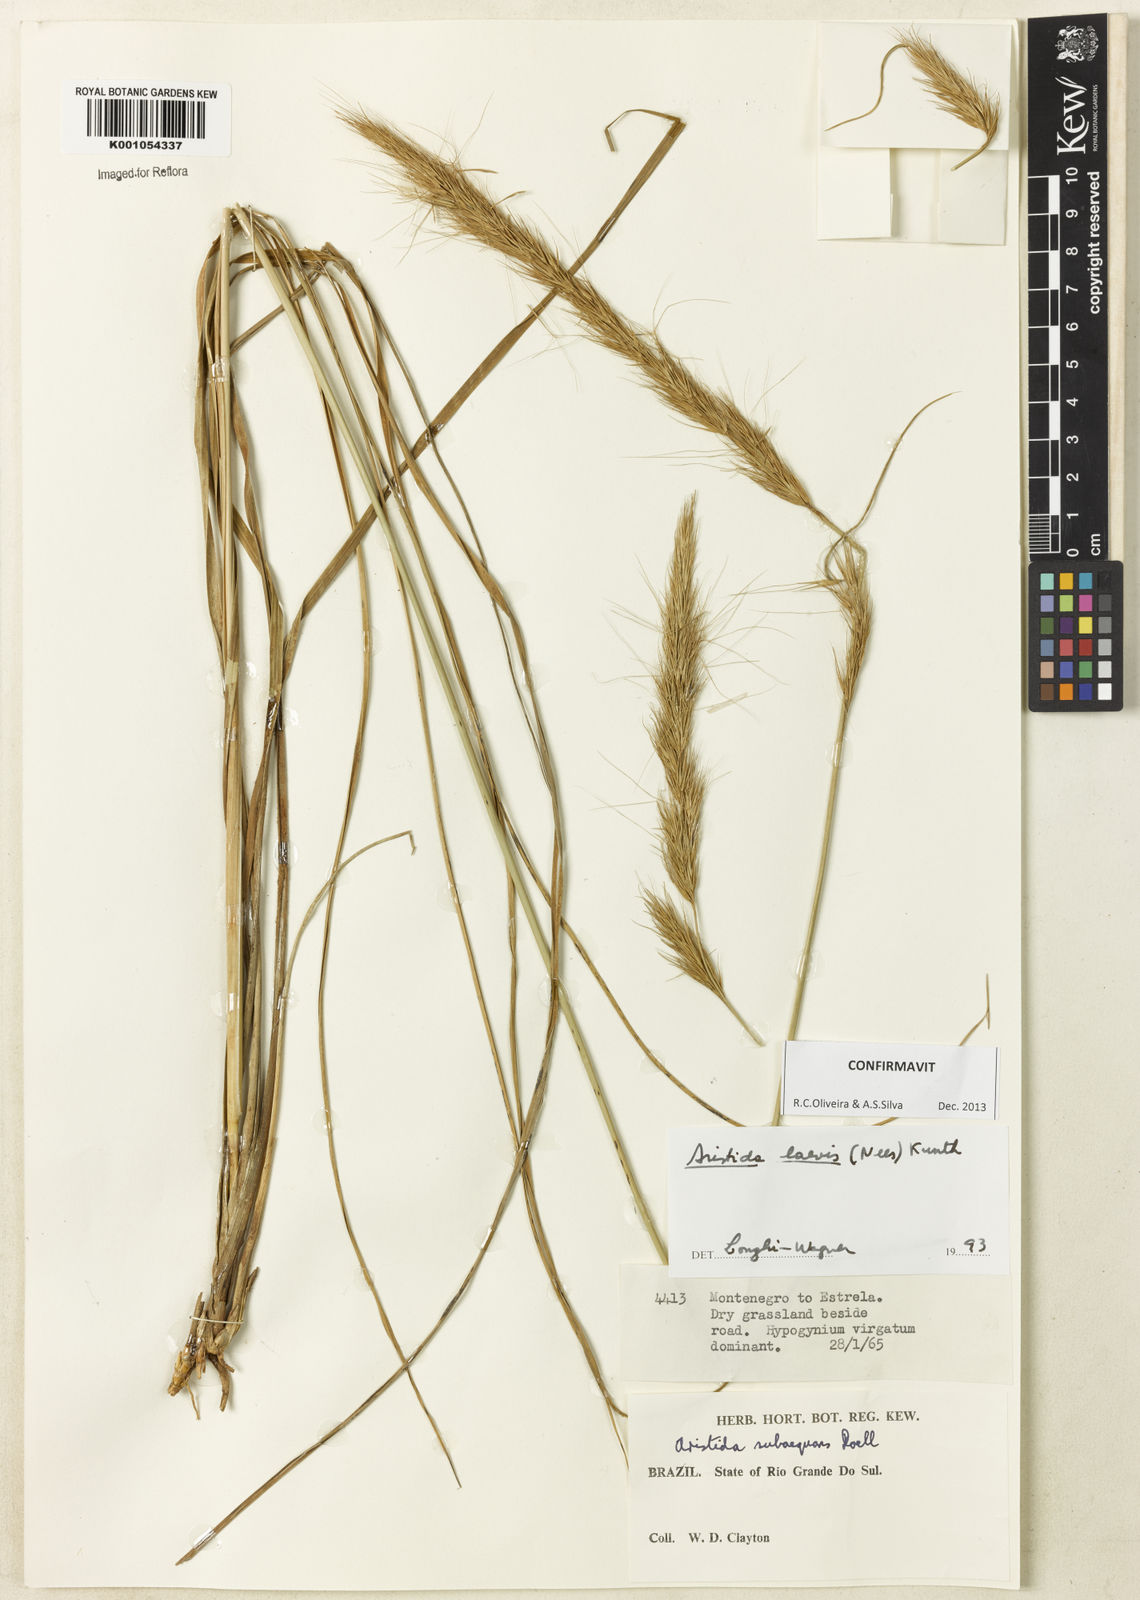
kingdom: Plantae
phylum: Tracheophyta
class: Liliopsida
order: Poales
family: Poaceae
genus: Aristida
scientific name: Aristida laevis
